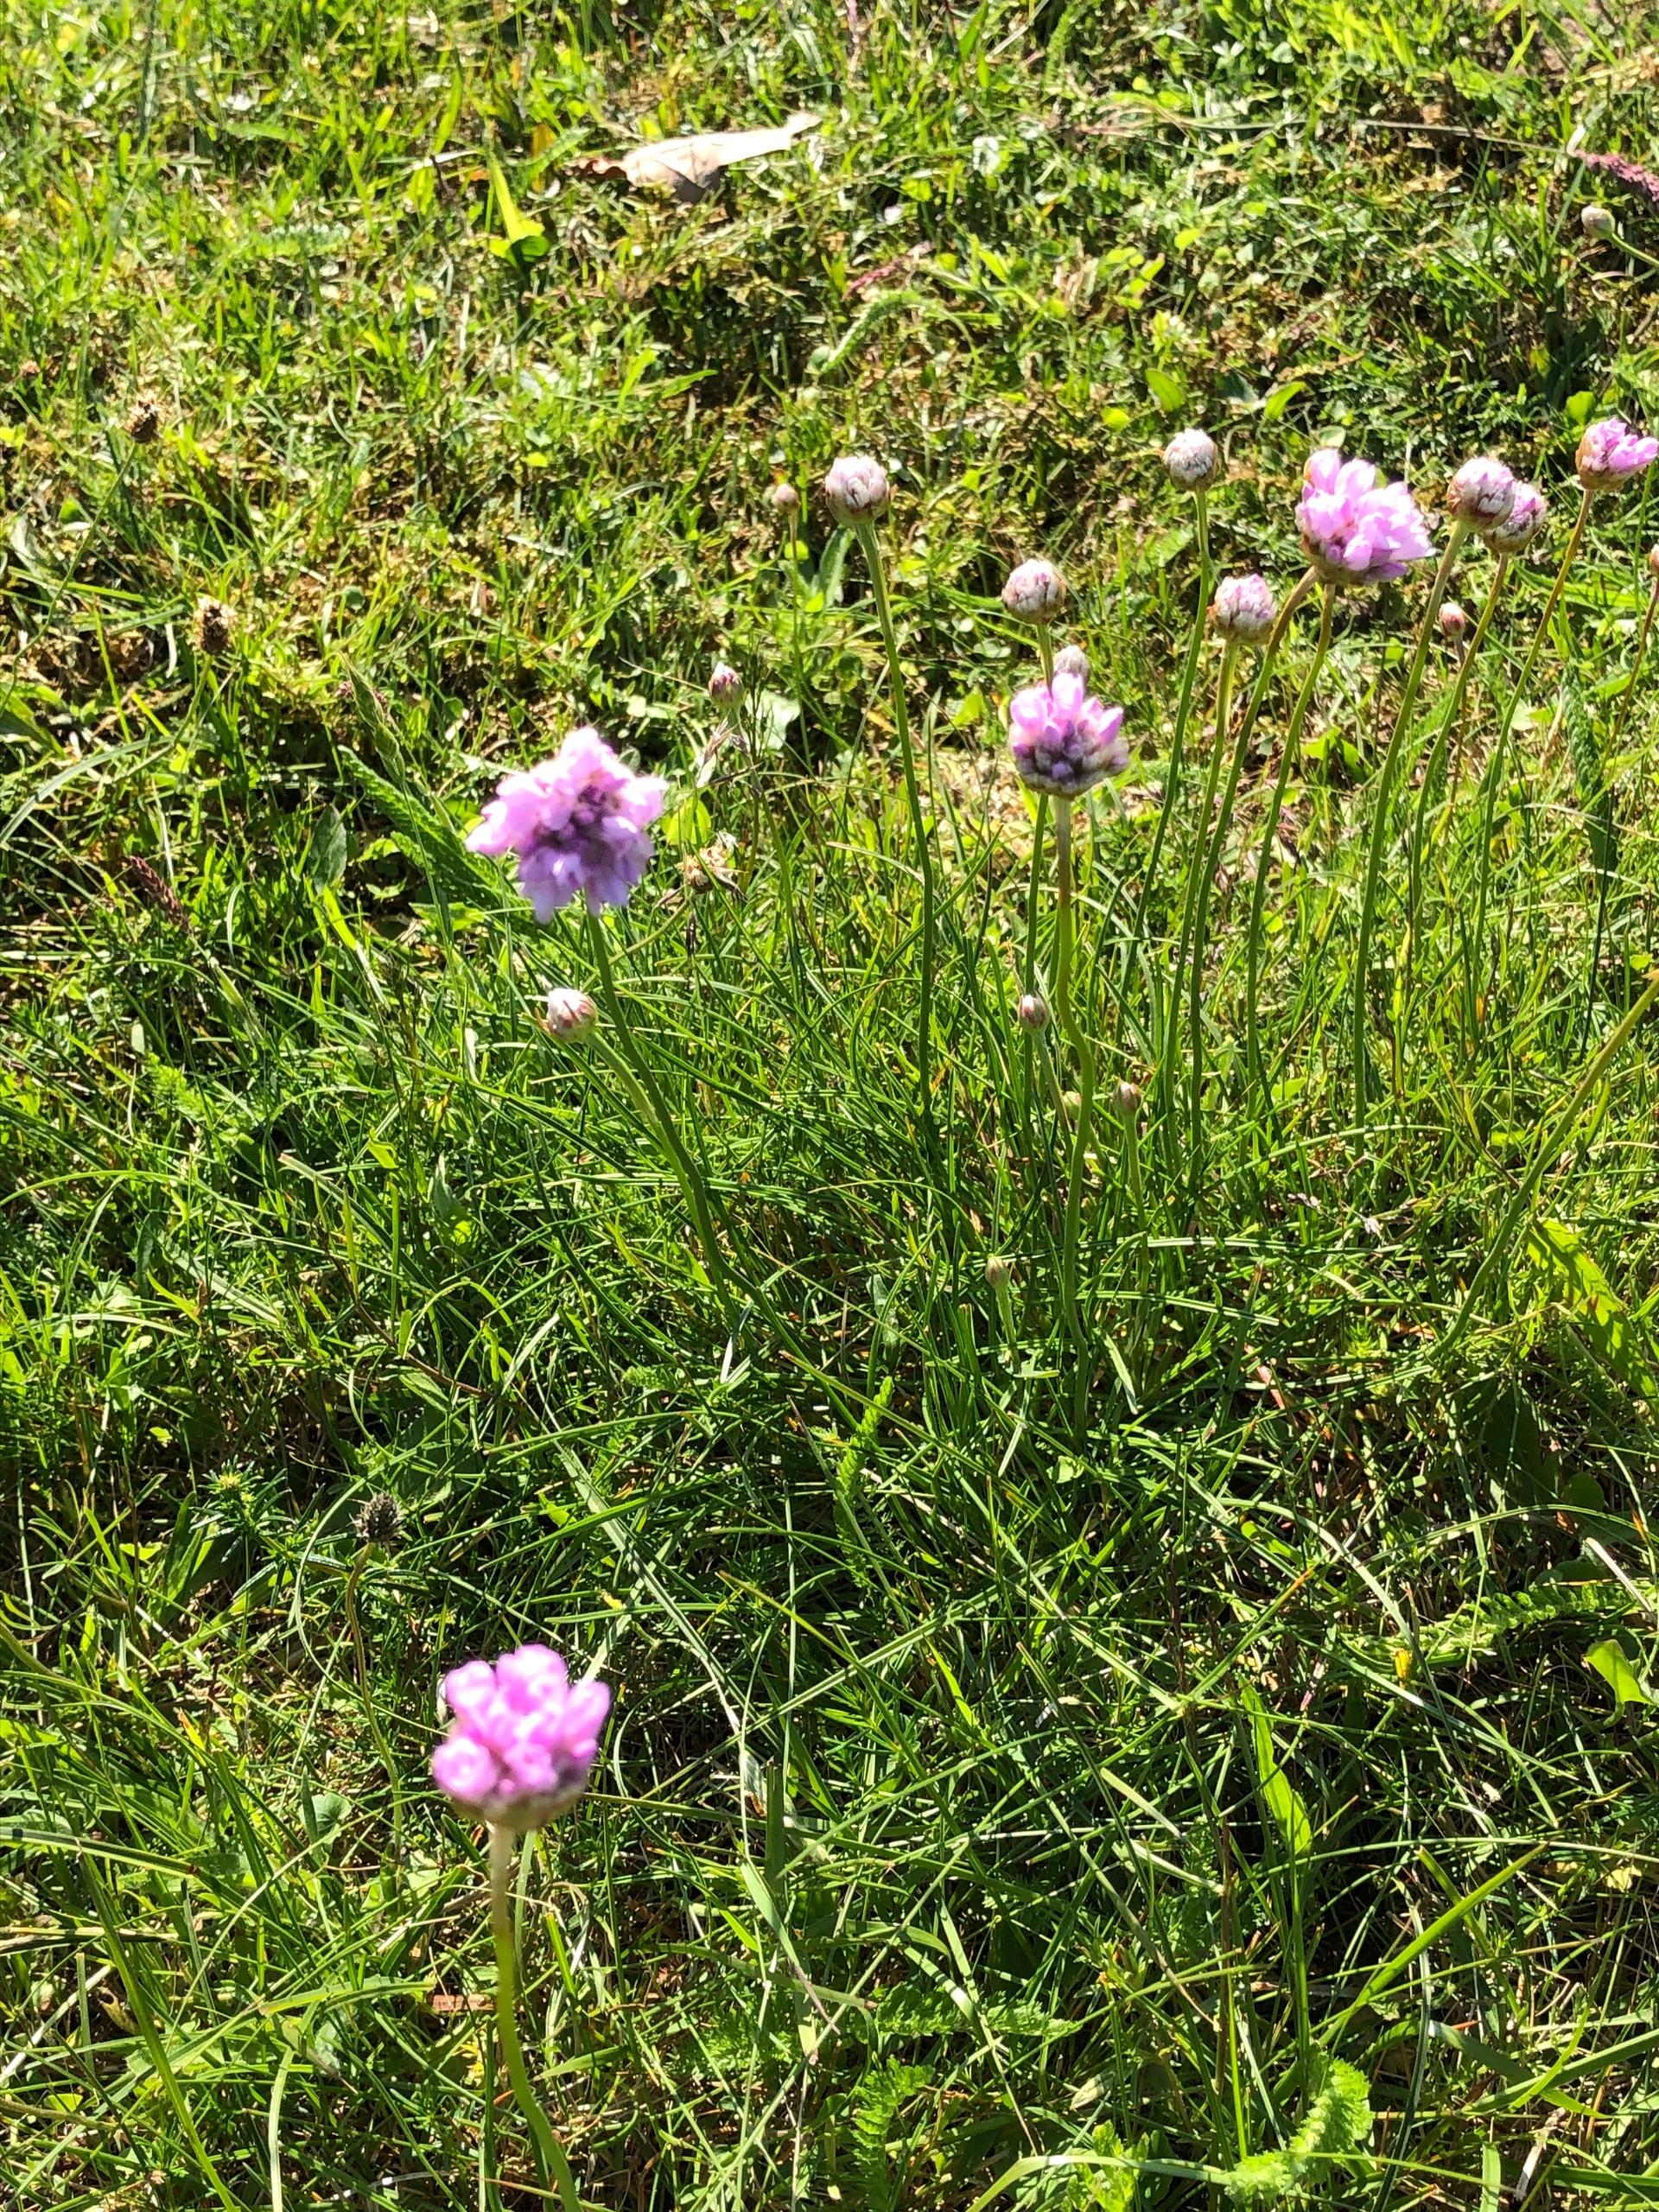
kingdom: Plantae
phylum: Tracheophyta
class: Magnoliopsida
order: Caryophyllales
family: Plumbaginaceae
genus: Armeria
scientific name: Armeria maritima
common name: Engelskgræs
